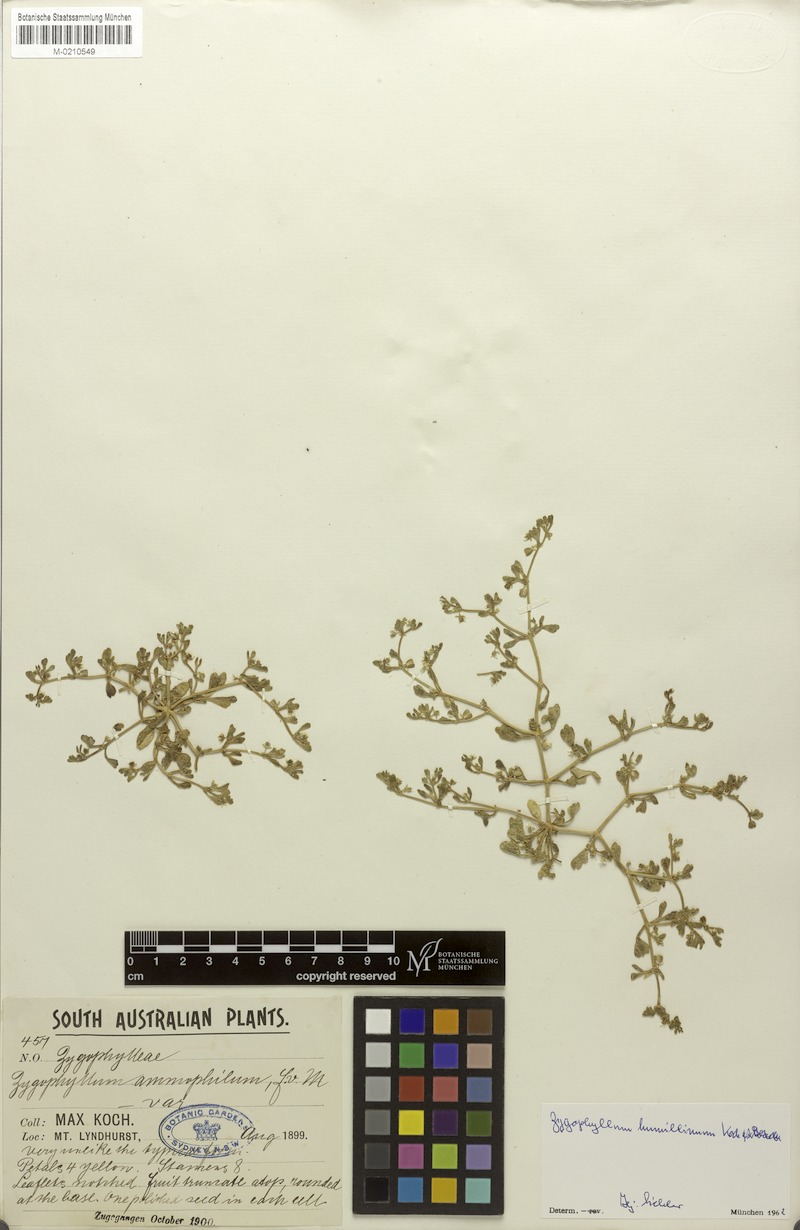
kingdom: Plantae
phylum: Tracheophyta
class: Magnoliopsida
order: Zygophyllales
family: Zygophyllaceae
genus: Roepera
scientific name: Roepera humillima
